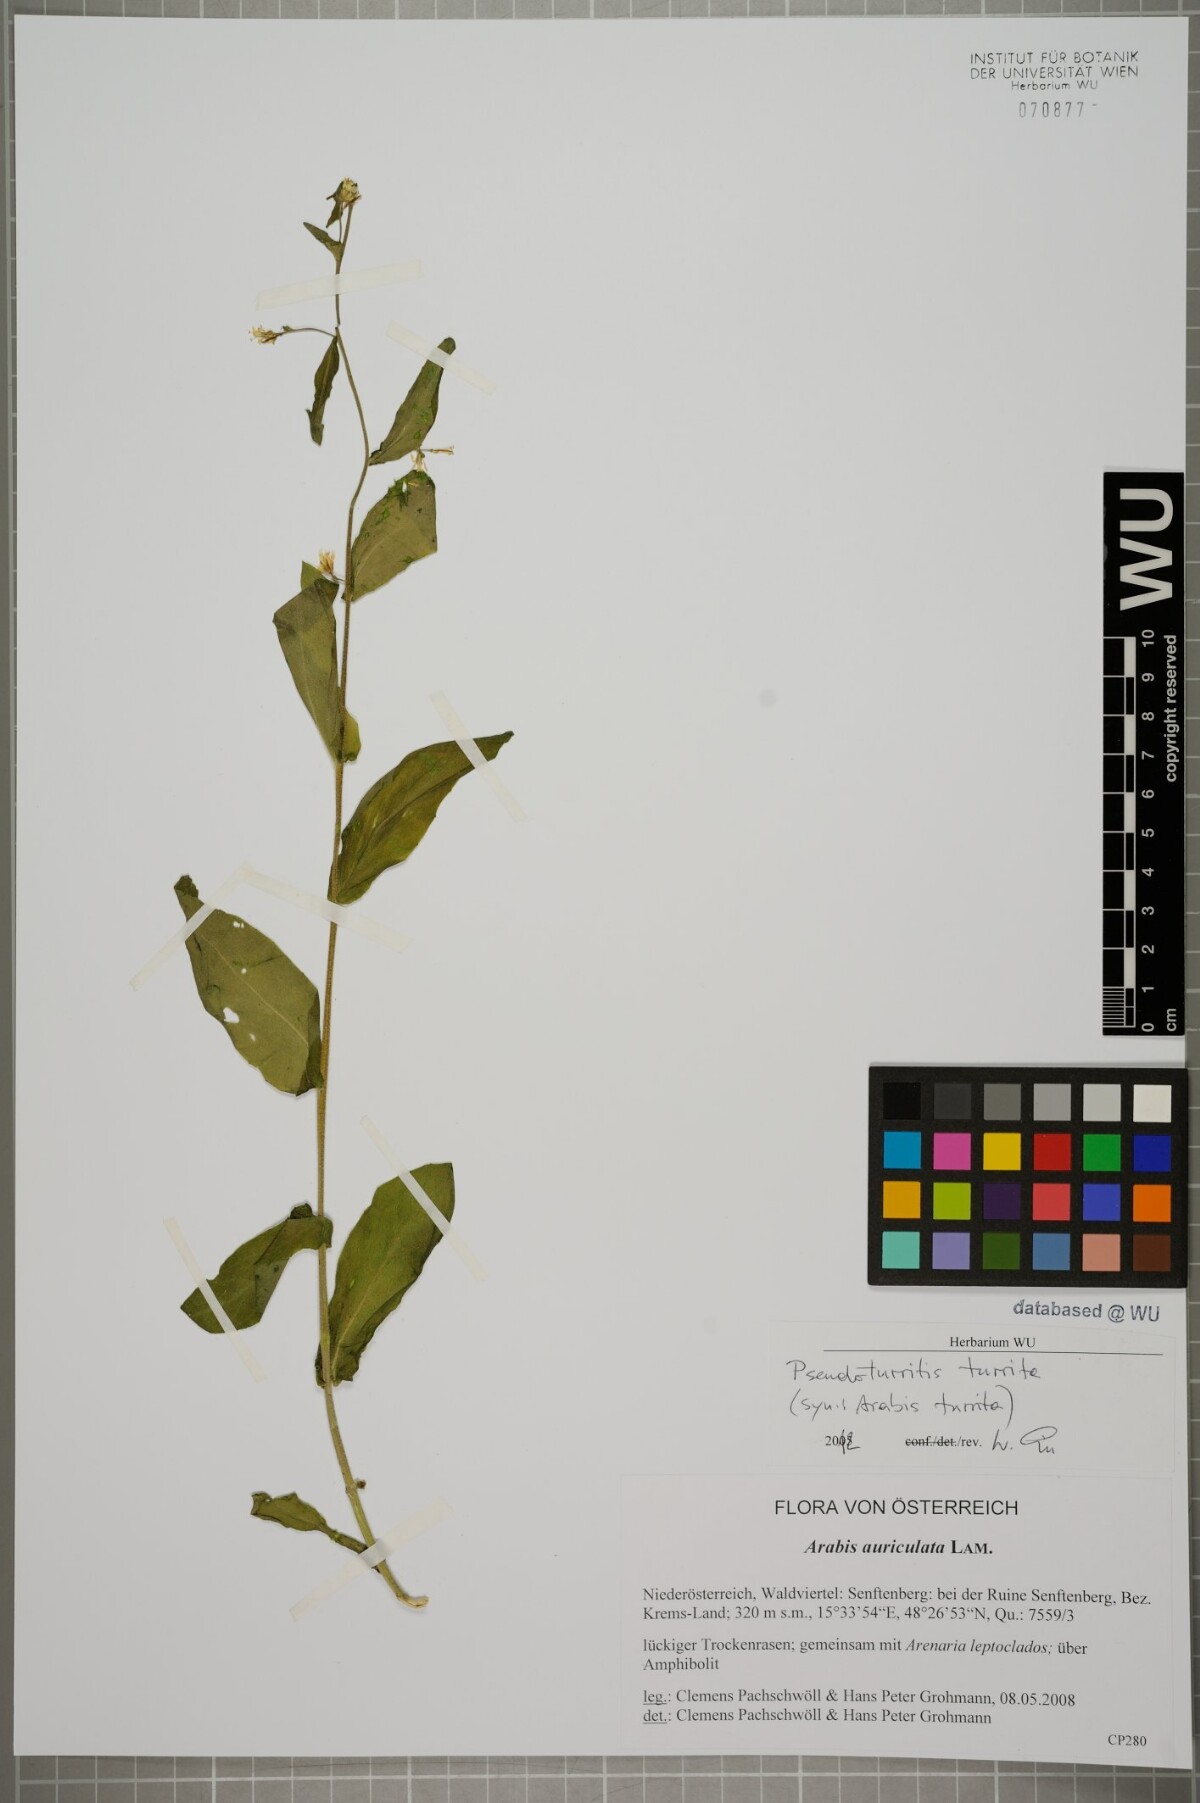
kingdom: Plantae
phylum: Tracheophyta
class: Magnoliopsida
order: Brassicales
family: Brassicaceae
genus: Pseudoturritis
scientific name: Pseudoturritis turrita
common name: Tower cress
